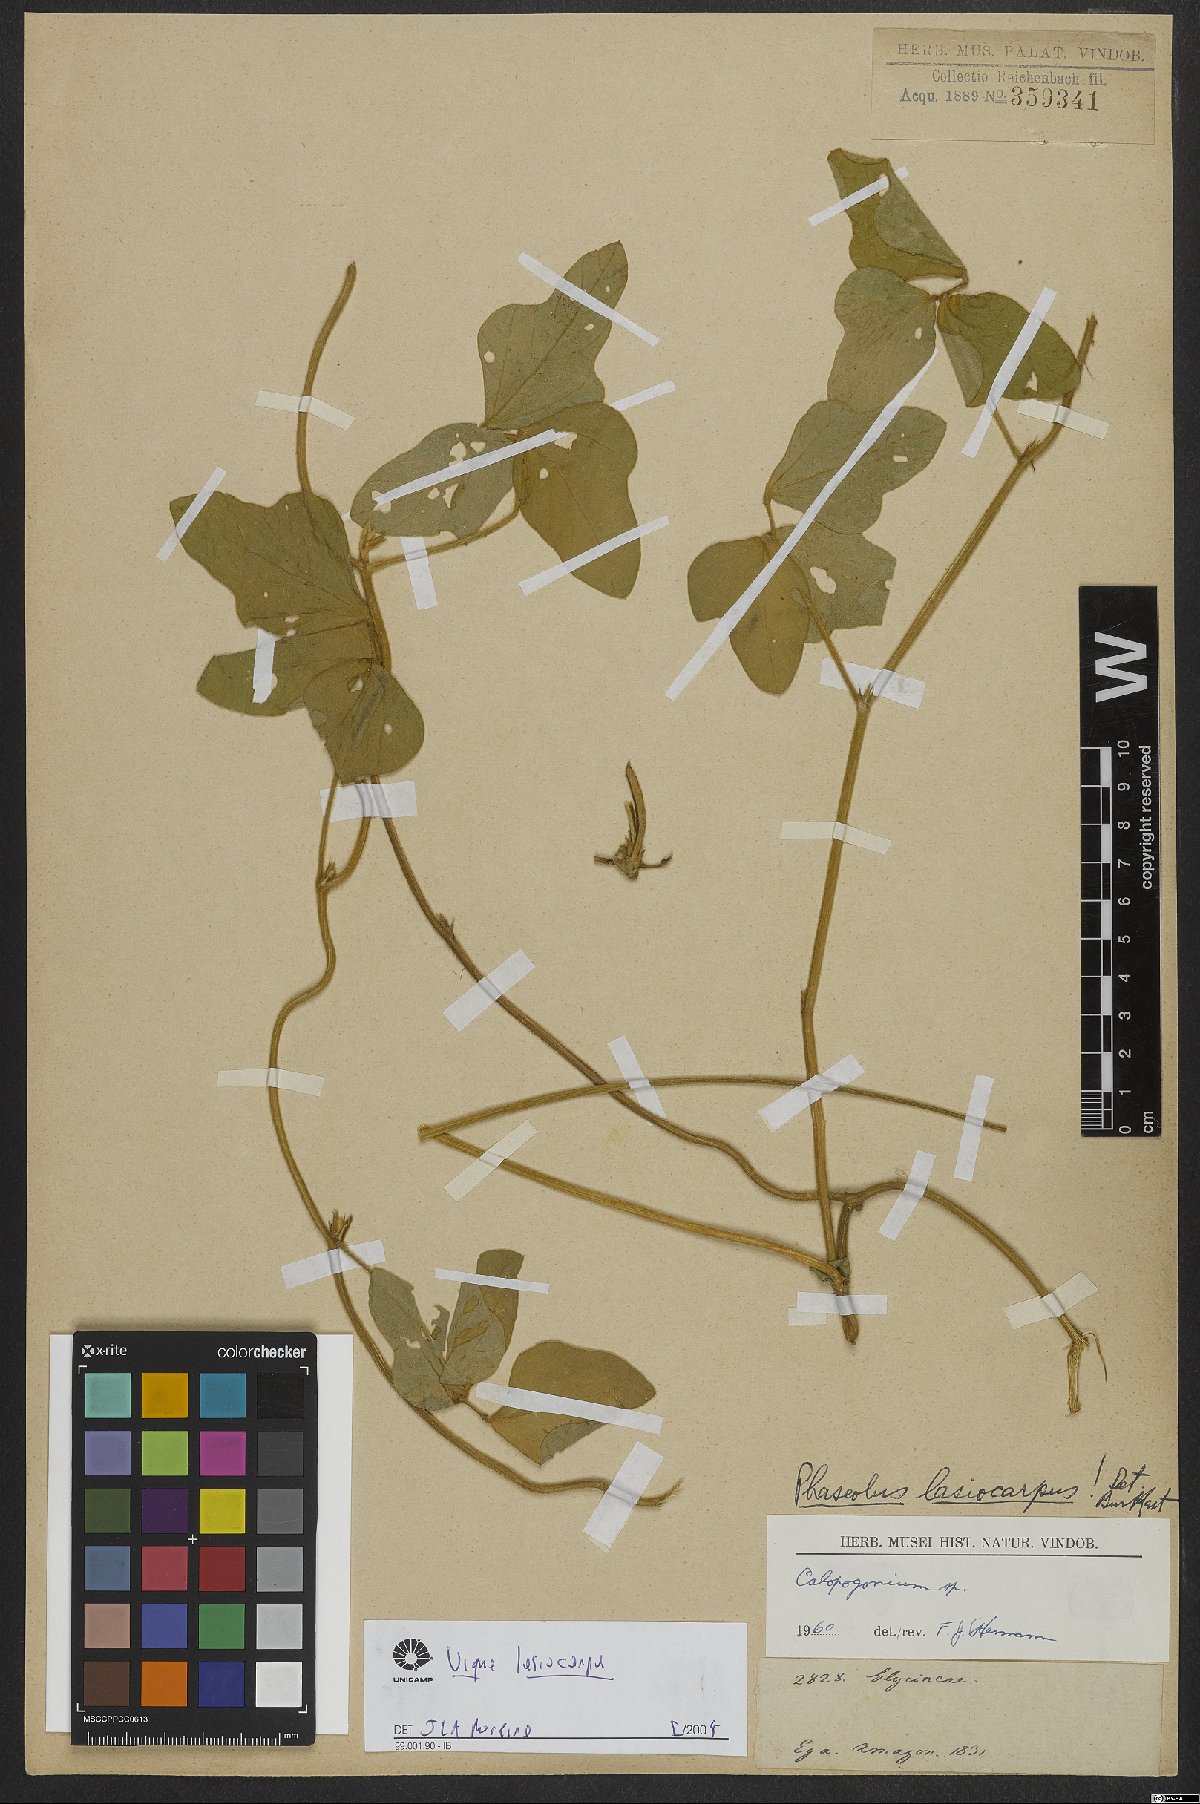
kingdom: Plantae
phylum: Tracheophyta
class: Magnoliopsida
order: Fabales
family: Fabaceae
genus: Vigna
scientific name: Vigna lasiocarpa
